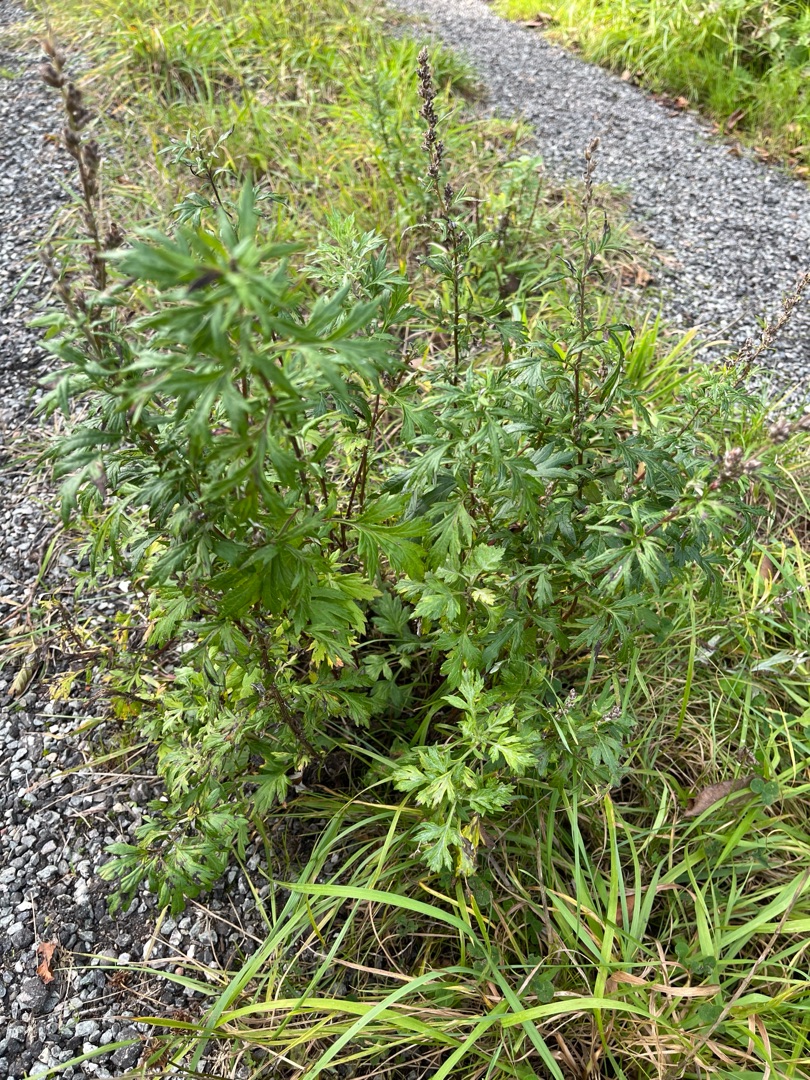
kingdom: Plantae
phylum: Tracheophyta
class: Magnoliopsida
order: Asterales
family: Asteraceae
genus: Artemisia
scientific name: Artemisia vulgaris
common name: Grå-bynke
